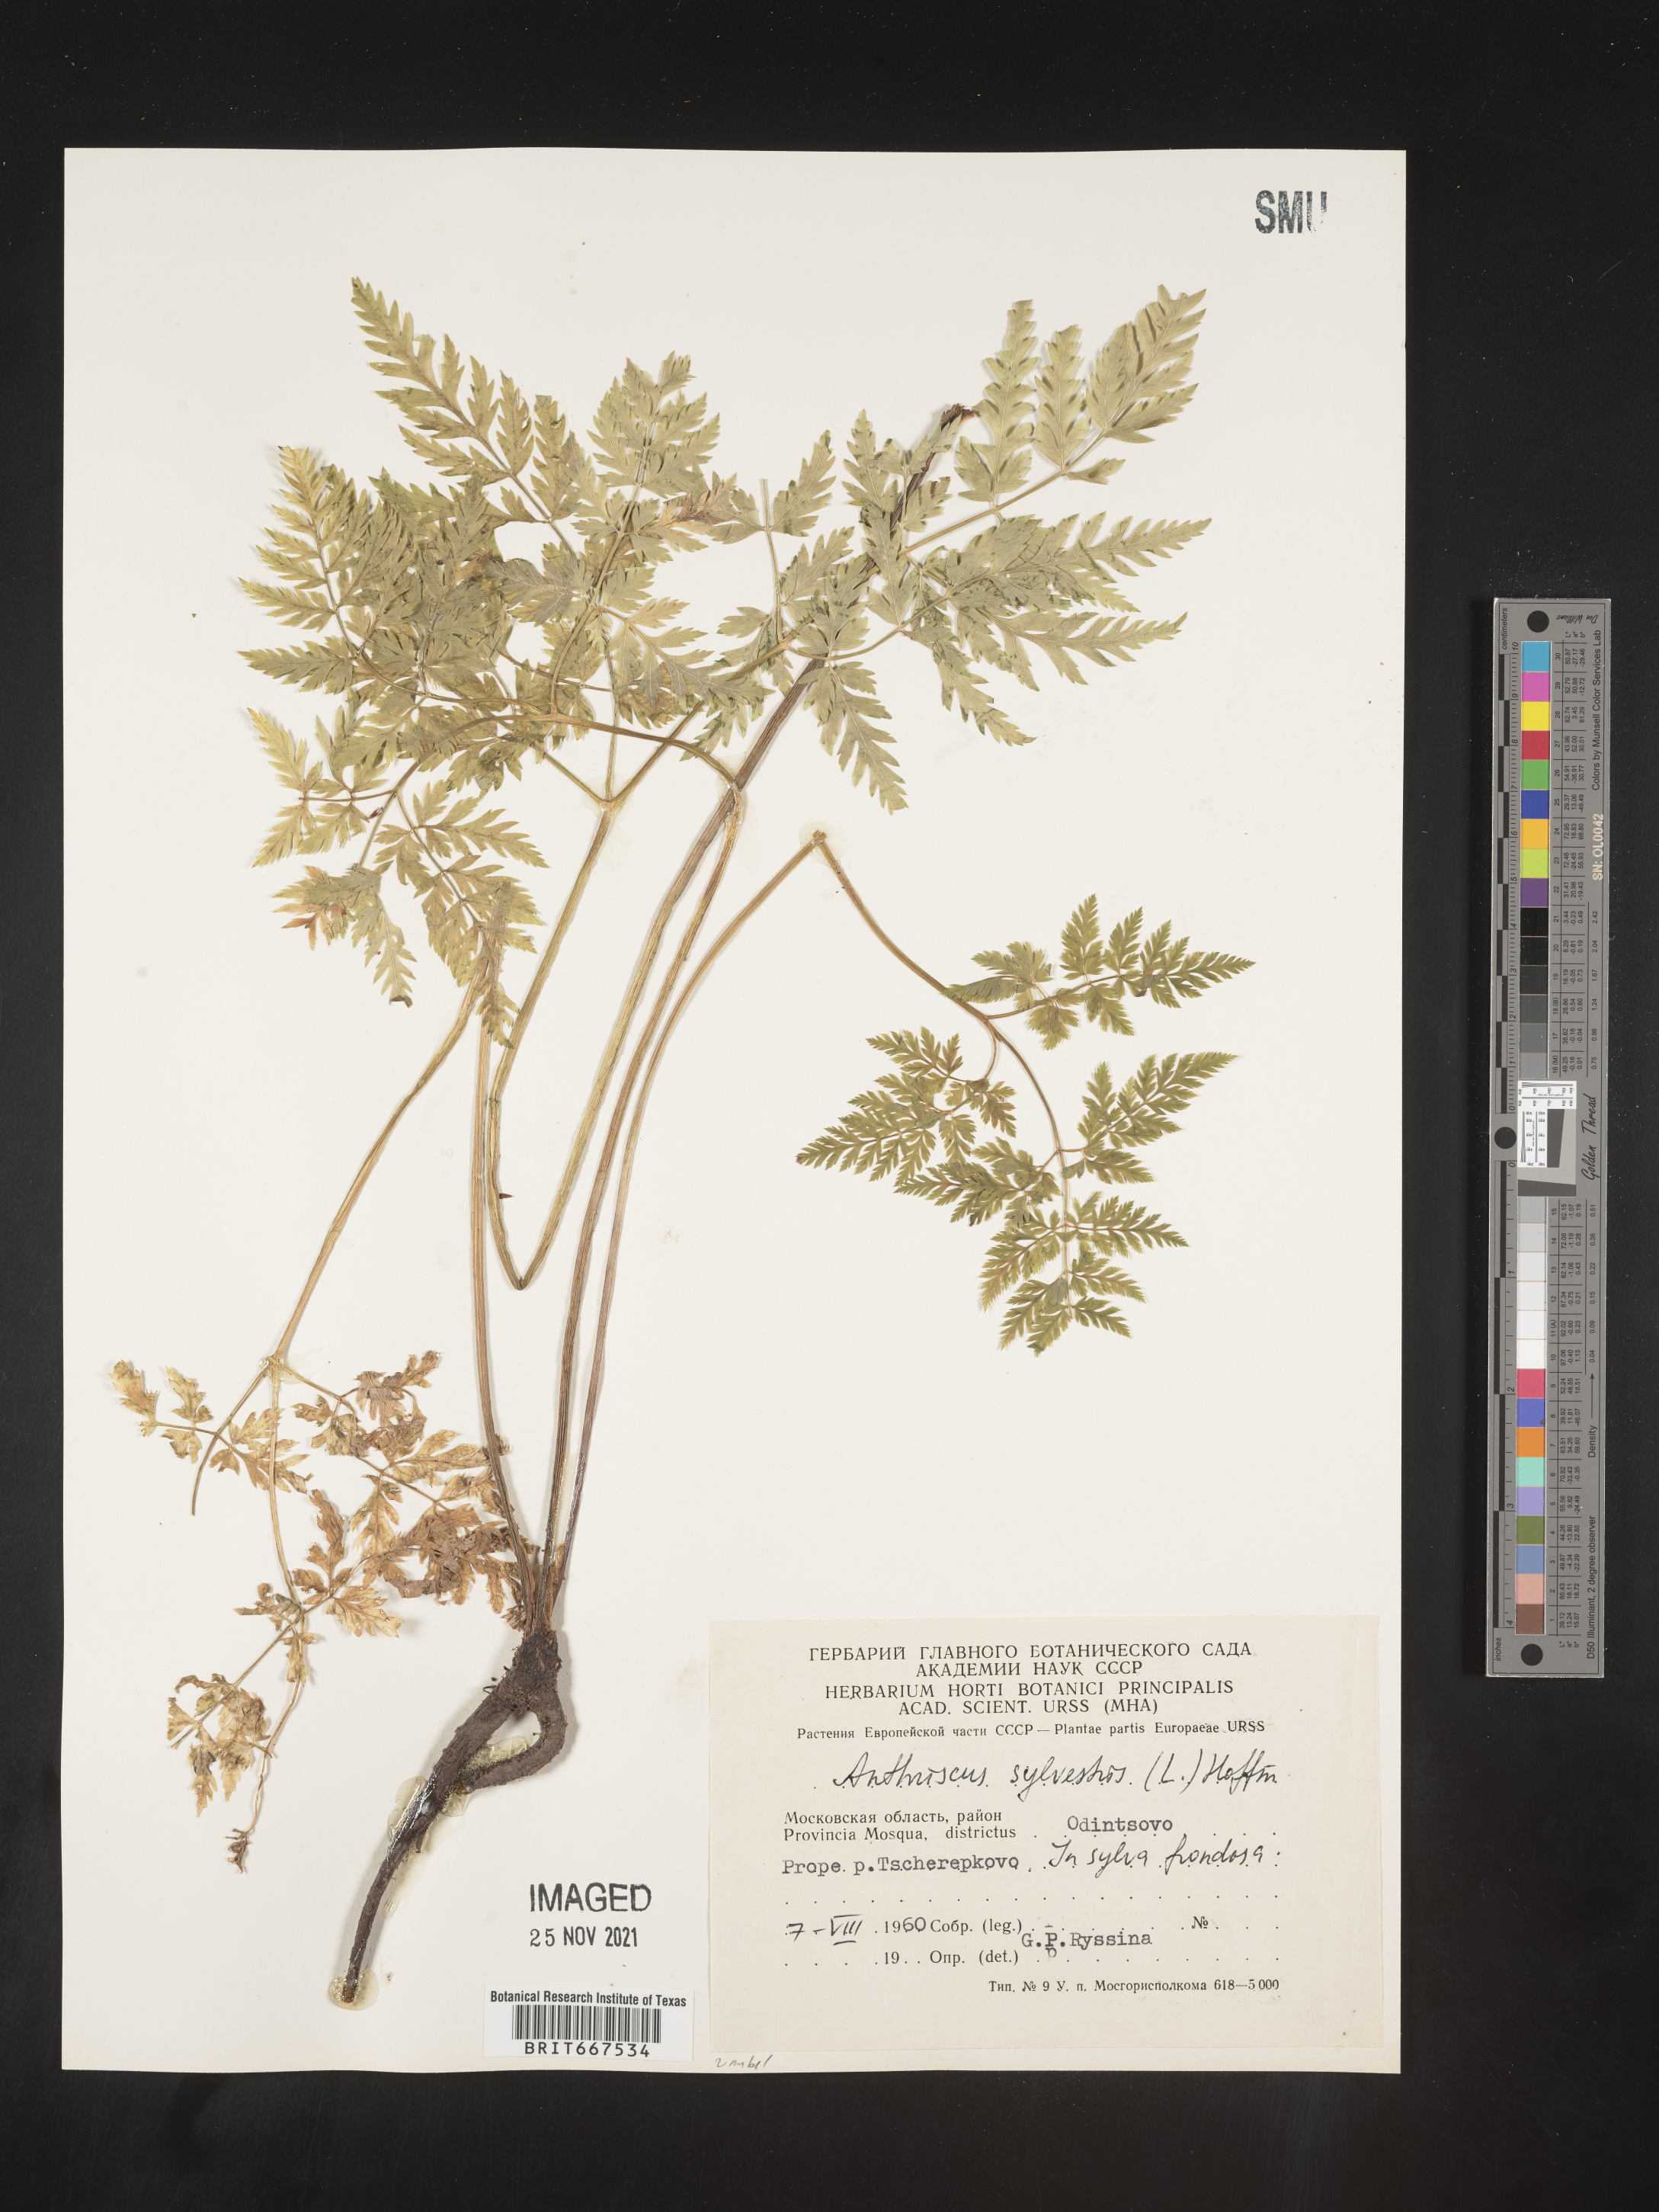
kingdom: Plantae
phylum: Tracheophyta
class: Magnoliopsida
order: Apiales
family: Apiaceae
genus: Anthriscus
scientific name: Anthriscus
